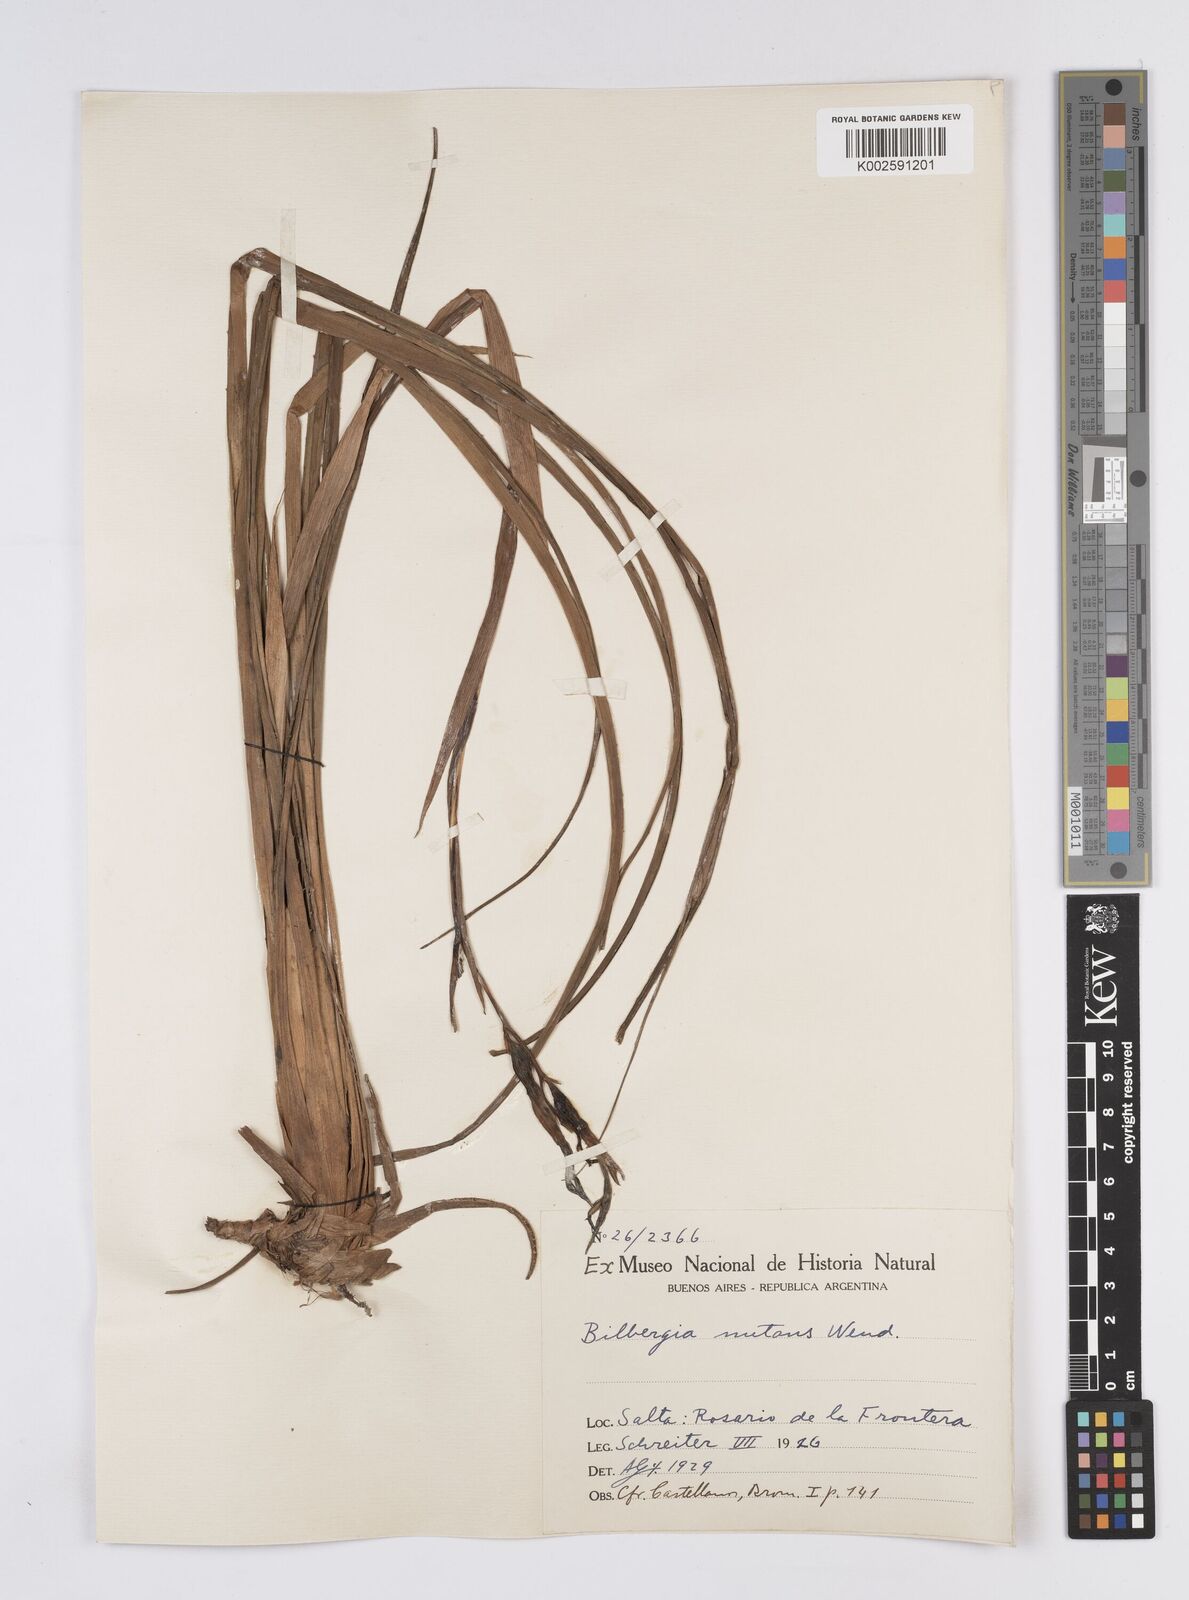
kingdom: Plantae
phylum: Tracheophyta
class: Liliopsida
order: Poales
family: Bromeliaceae
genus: Billbergia
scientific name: Billbergia nutans
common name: Friendship-plant
